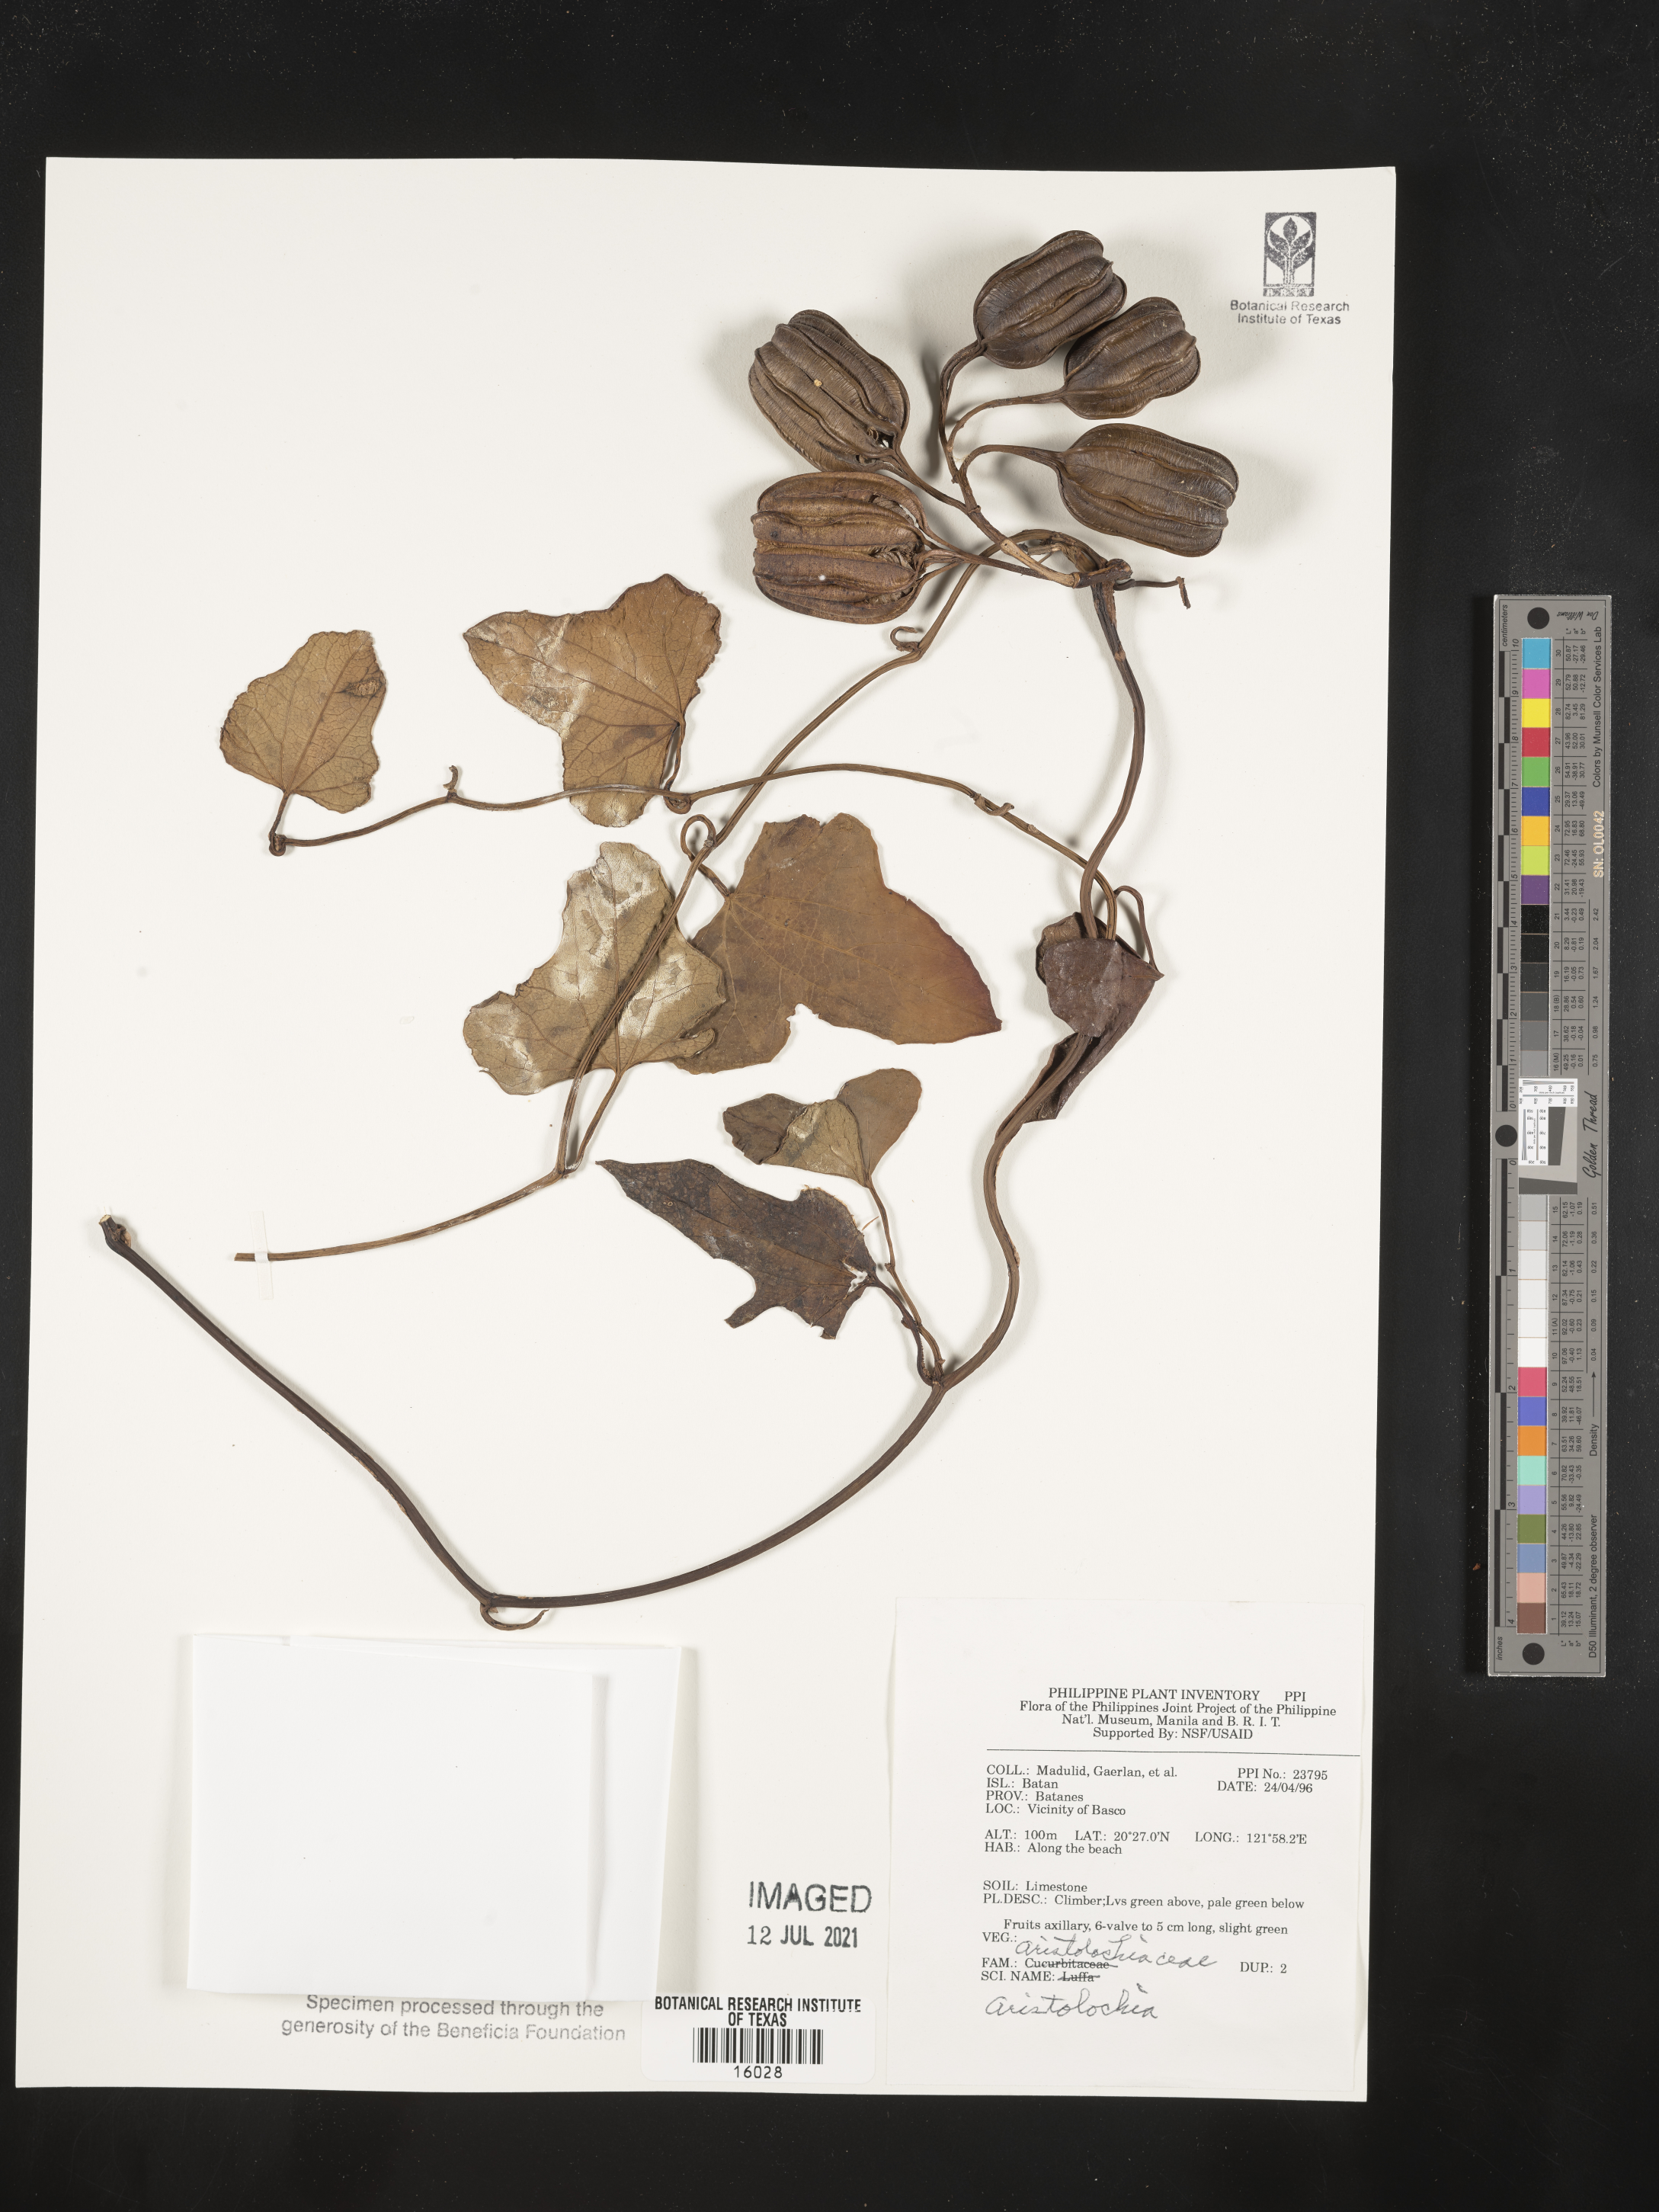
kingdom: Plantae
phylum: Tracheophyta
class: Magnoliopsida
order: Piperales
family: Aristolochiaceae
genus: Aristolochia
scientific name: Aristolochia
